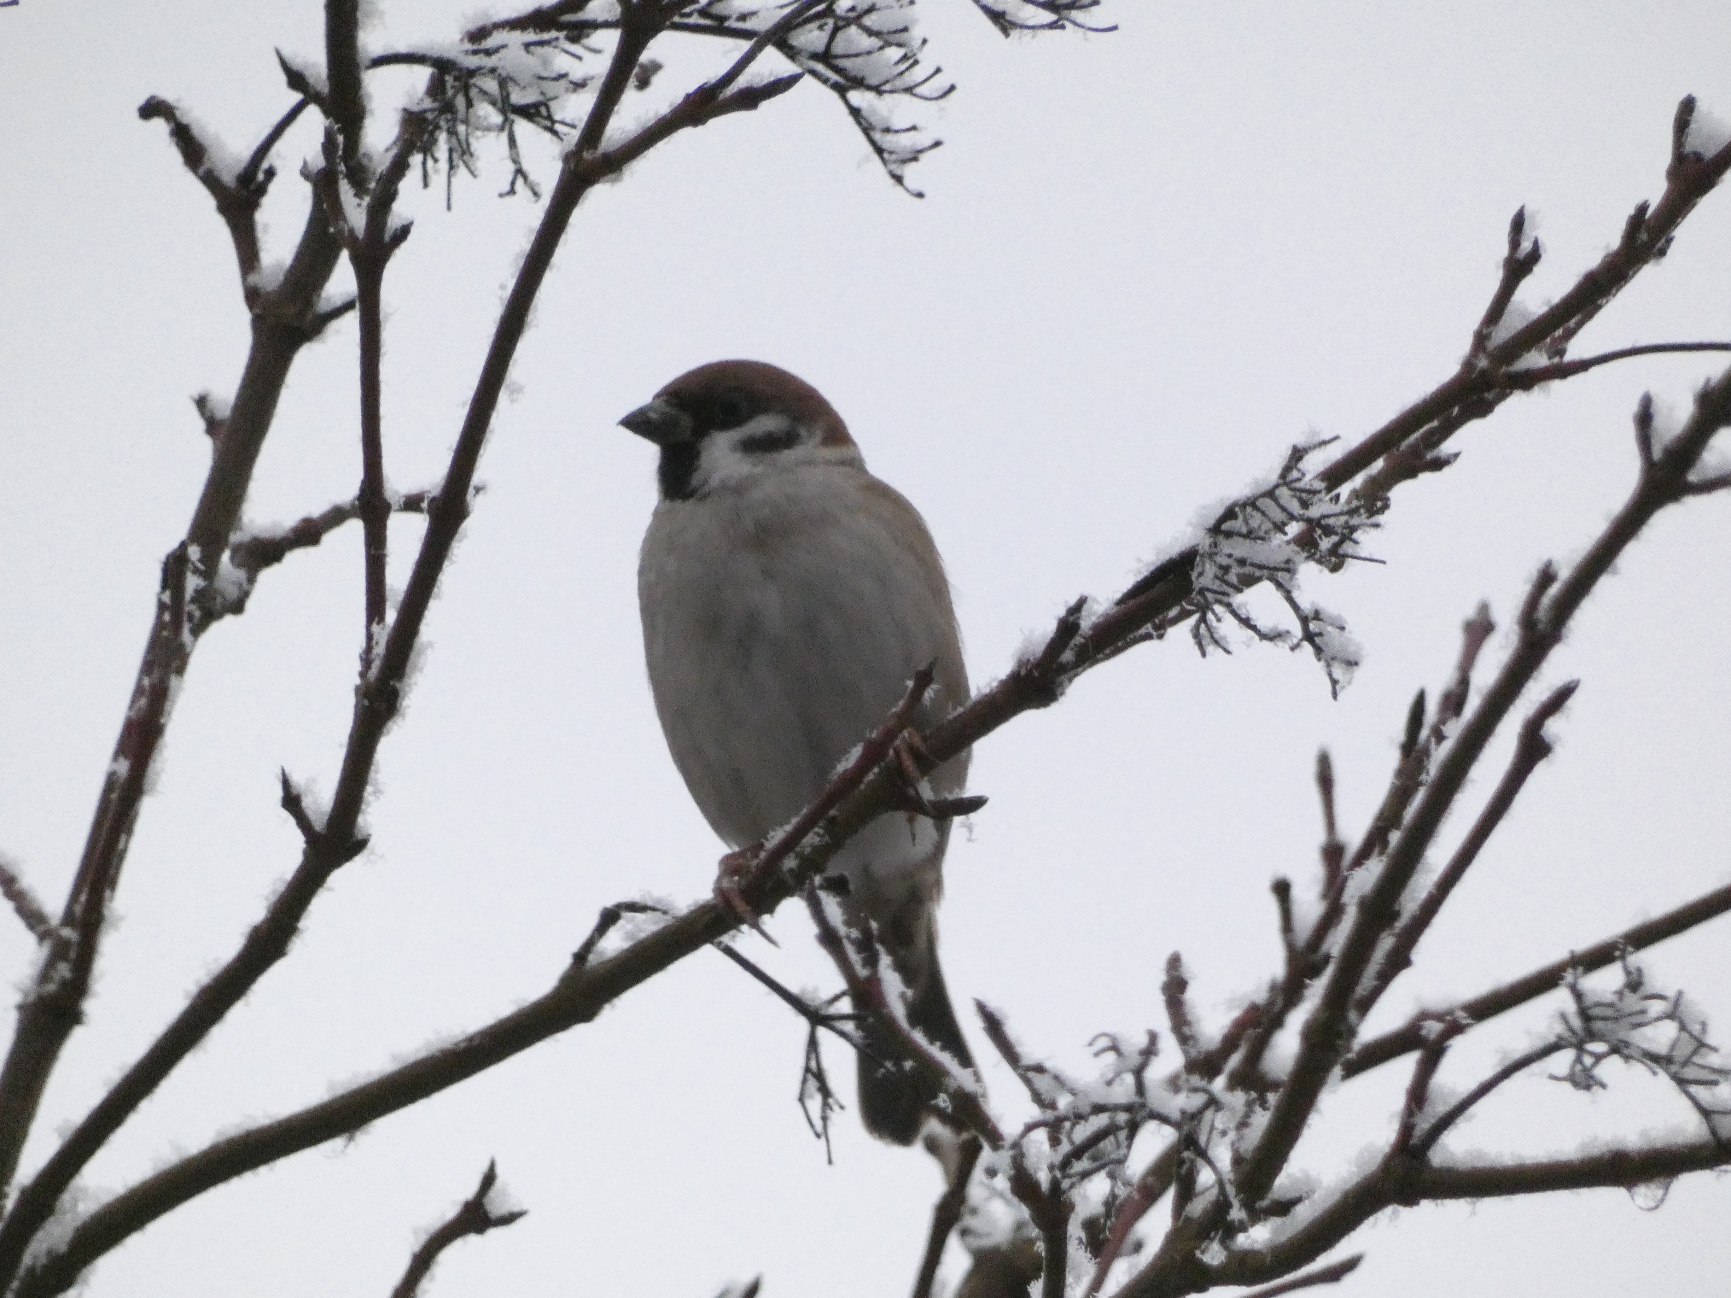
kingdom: Animalia
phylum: Chordata
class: Aves
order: Passeriformes
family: Passeridae
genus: Passer
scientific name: Passer montanus
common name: Skovspurv
